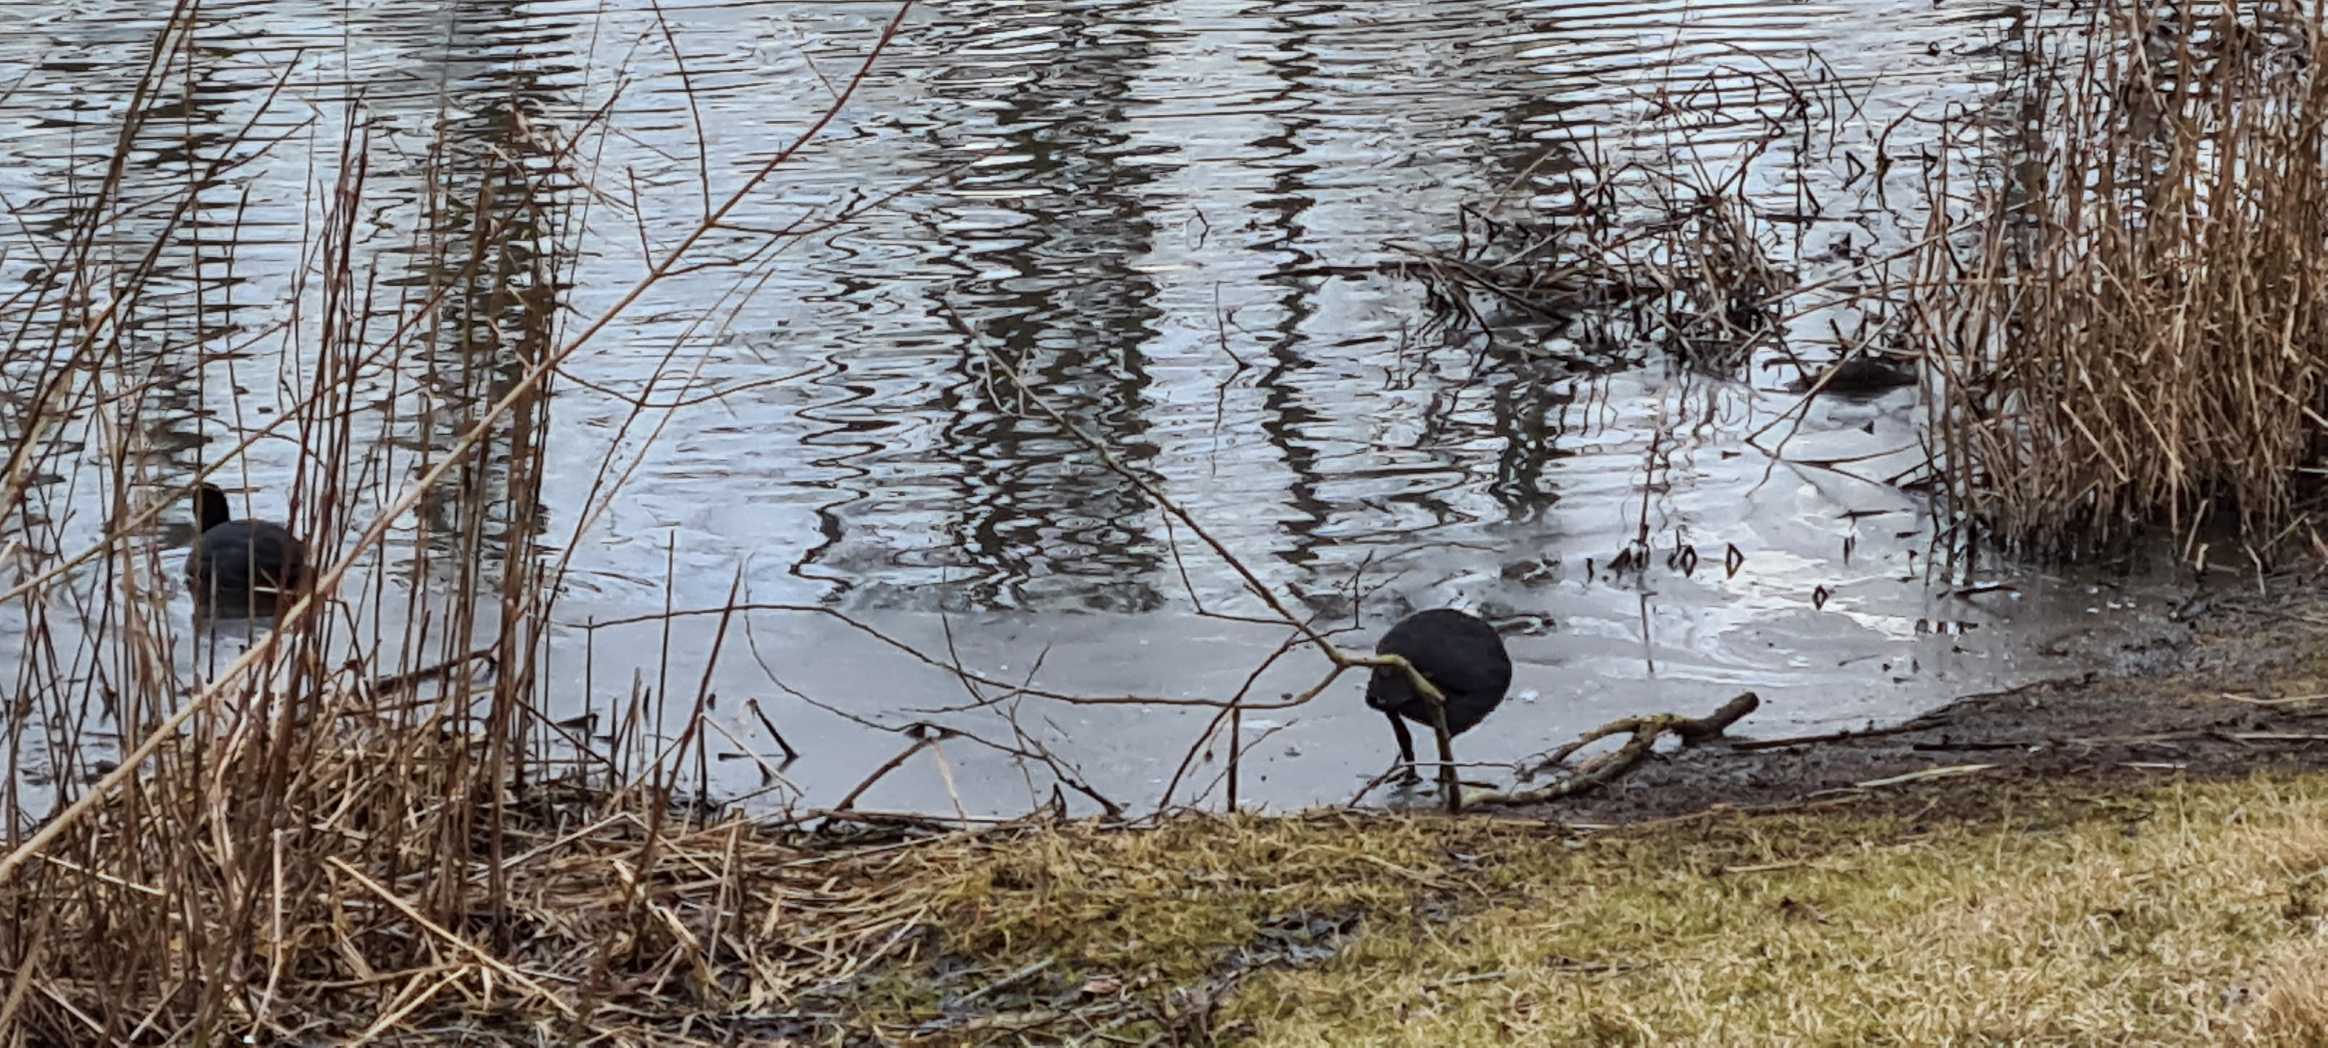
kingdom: Animalia
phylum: Chordata
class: Aves
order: Gruiformes
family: Rallidae
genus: Fulica
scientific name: Fulica atra
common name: Blishøne
